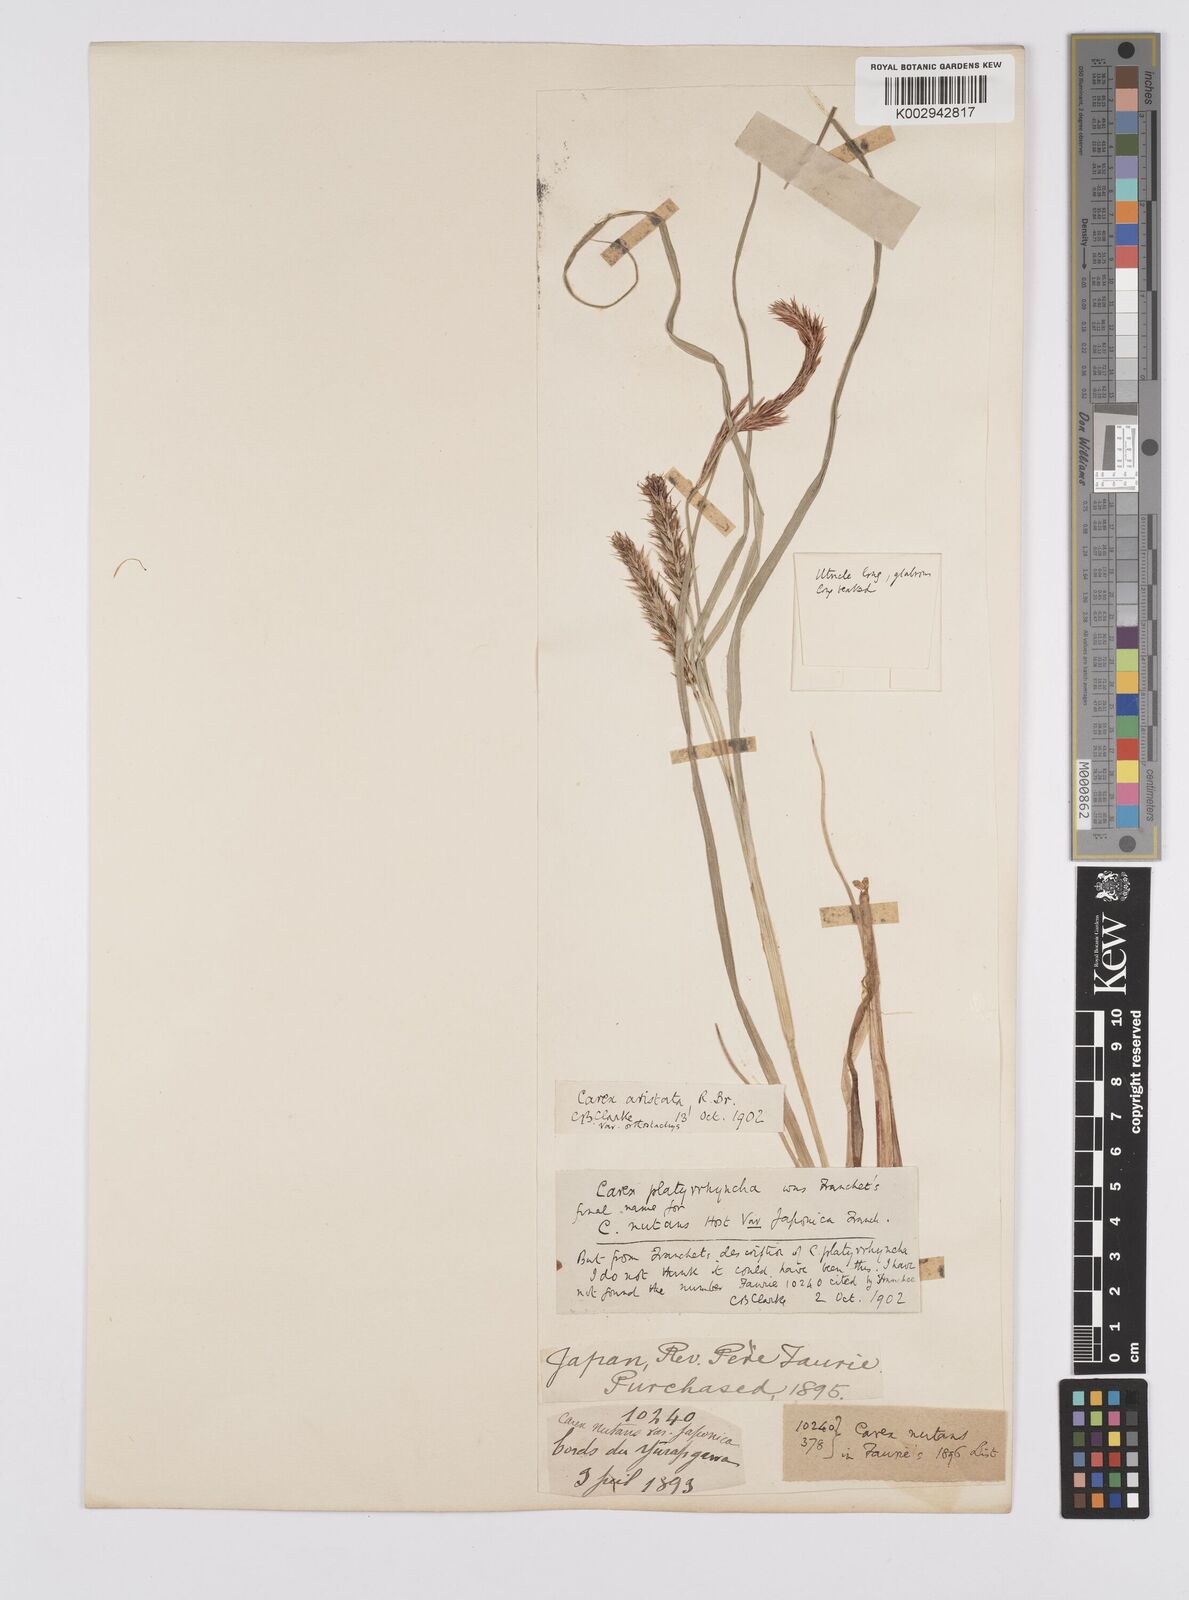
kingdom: Plantae
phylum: Tracheophyta
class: Liliopsida
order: Poales
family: Cyperaceae
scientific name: Cyperaceae
